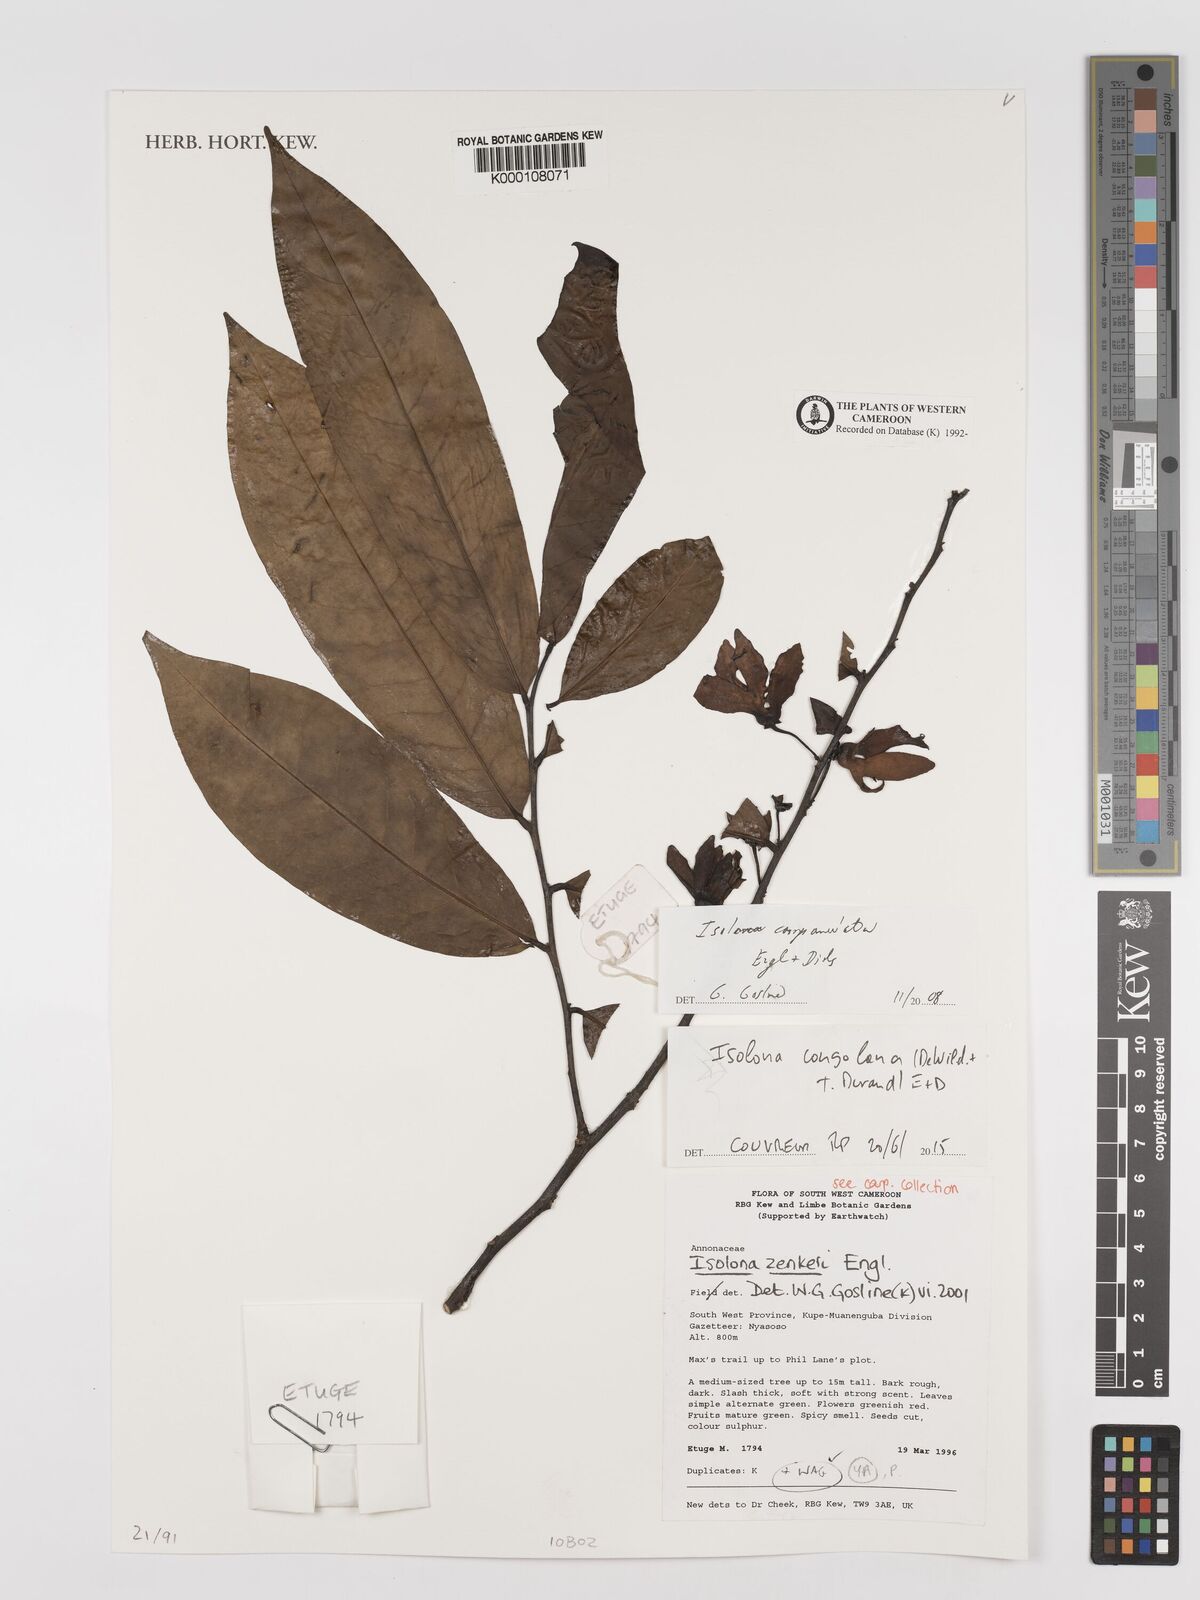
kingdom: Plantae
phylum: Tracheophyta
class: Magnoliopsida
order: Magnoliales
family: Annonaceae
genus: Isolona
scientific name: Isolona campanulata
